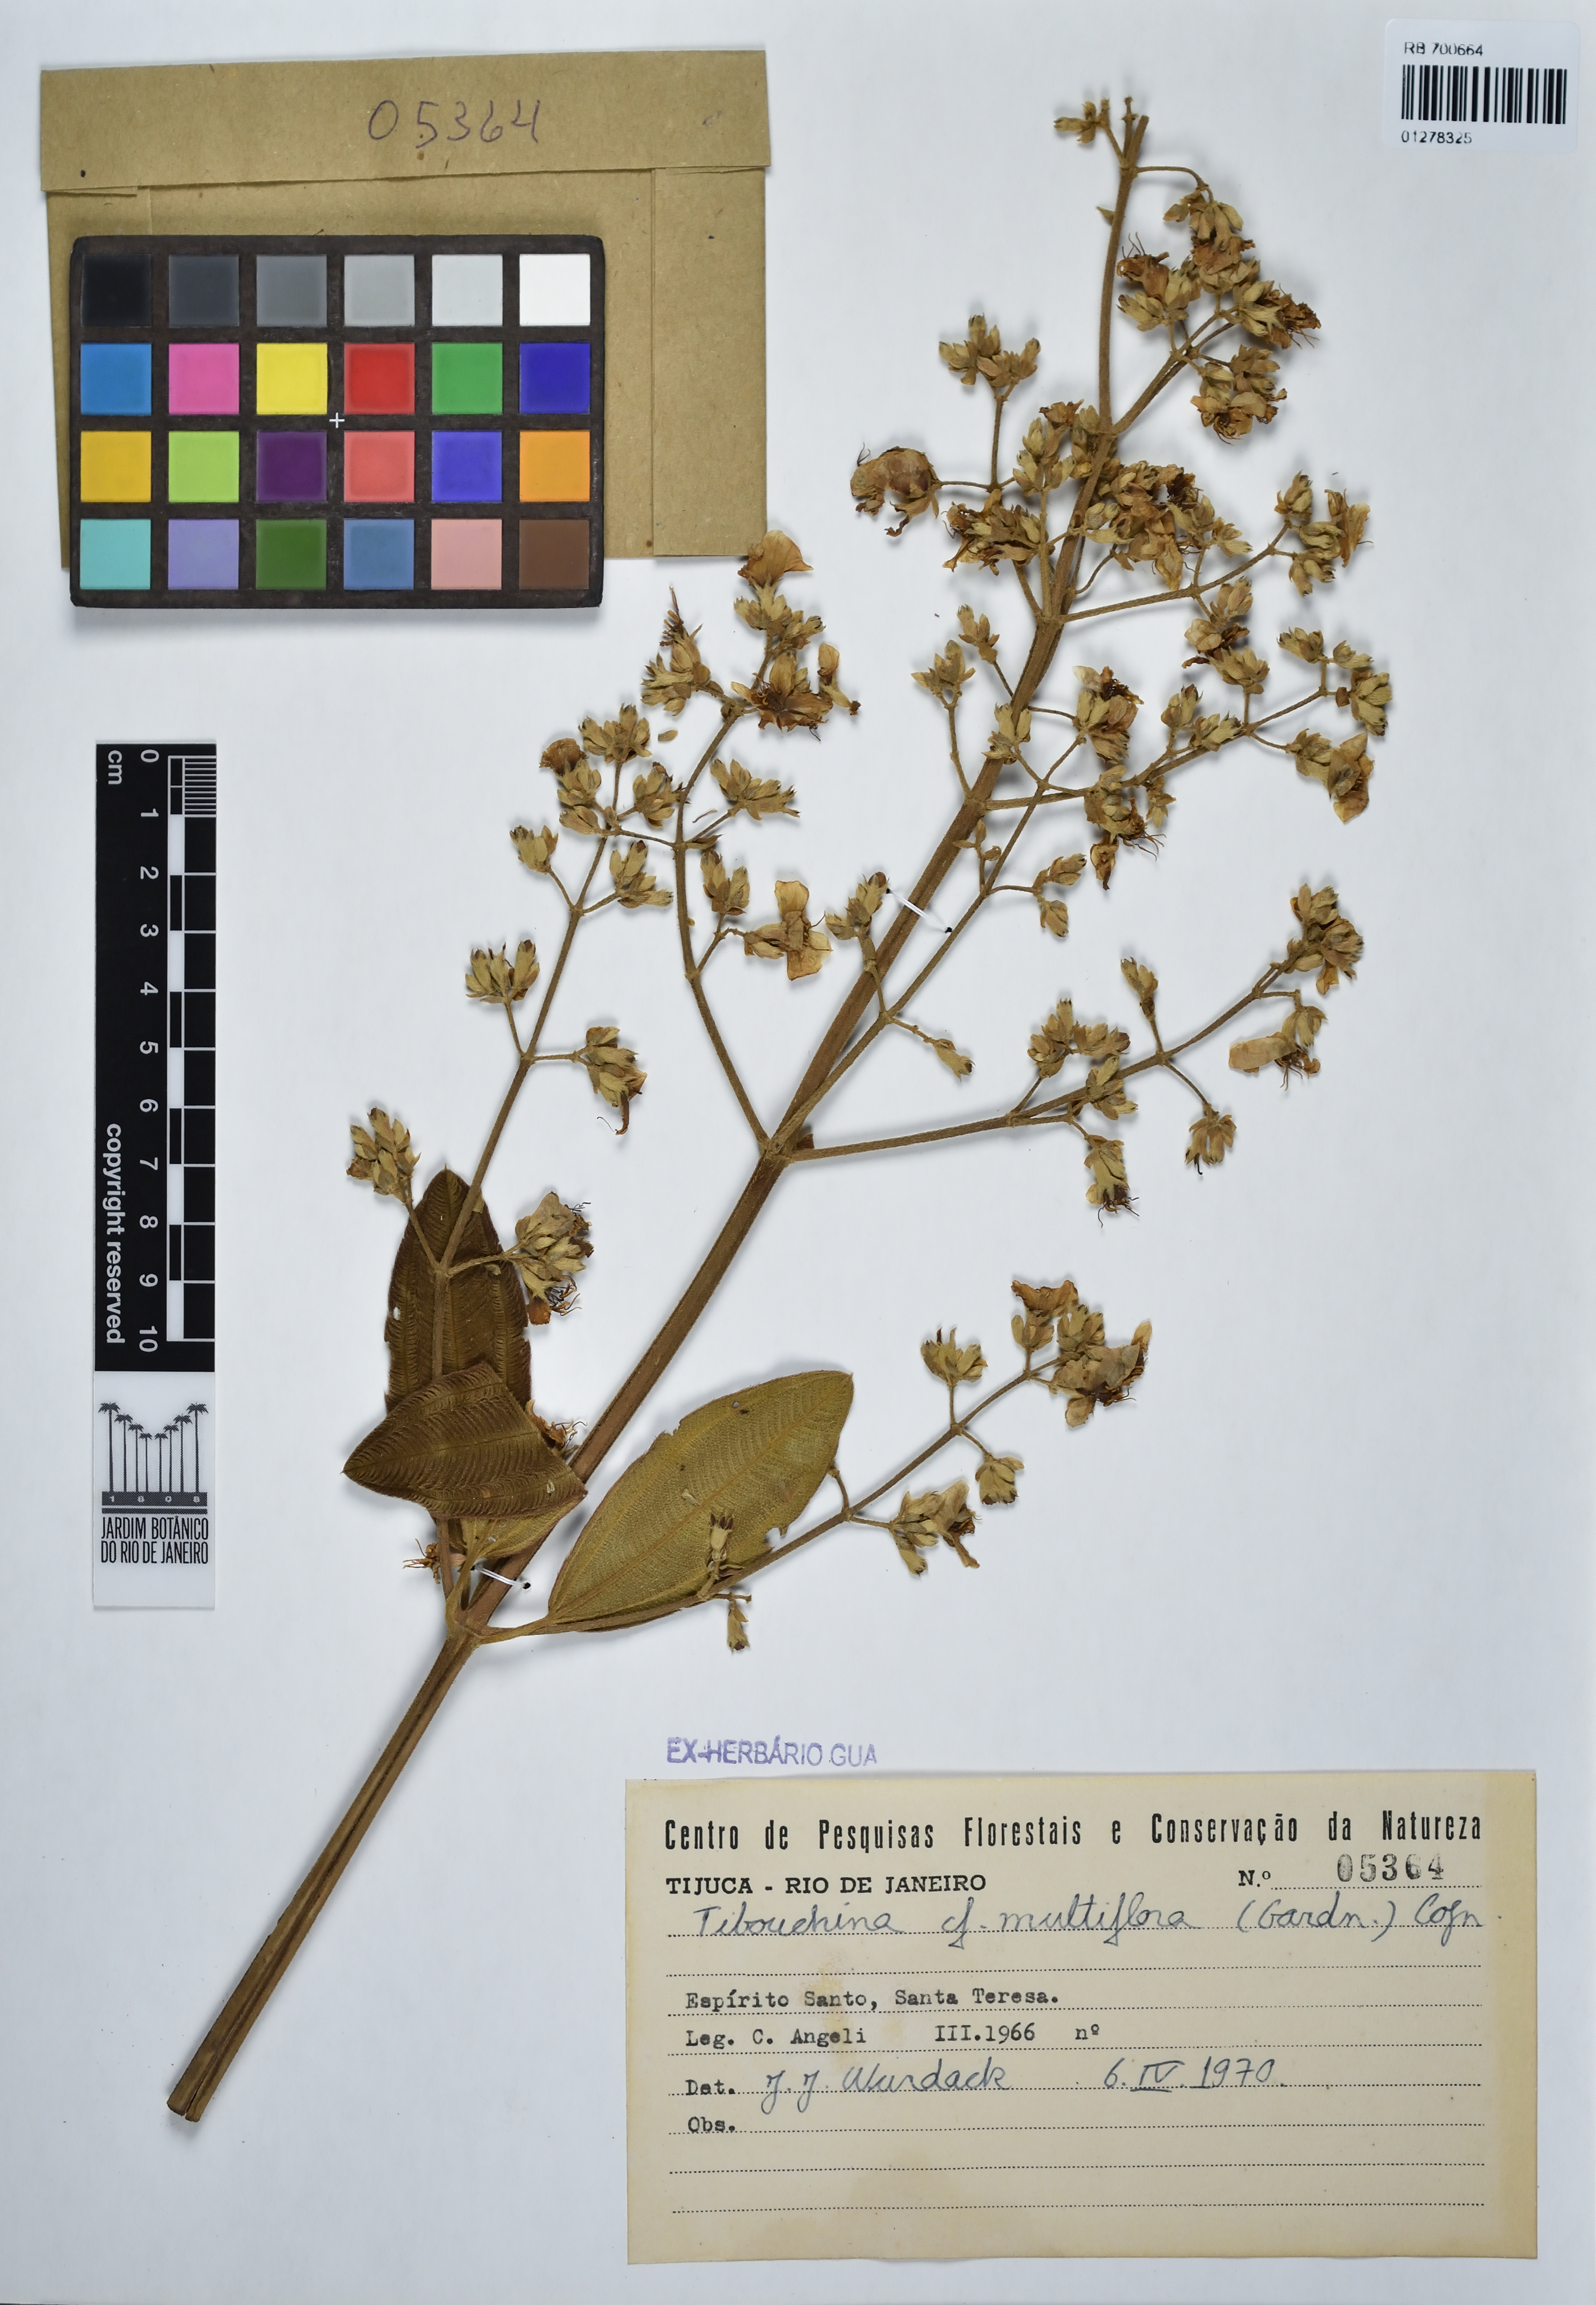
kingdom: Plantae
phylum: Tracheophyta
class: Magnoliopsida
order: Myrtales
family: Melastomataceae
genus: Pleroma
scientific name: Pleroma heteromallum
